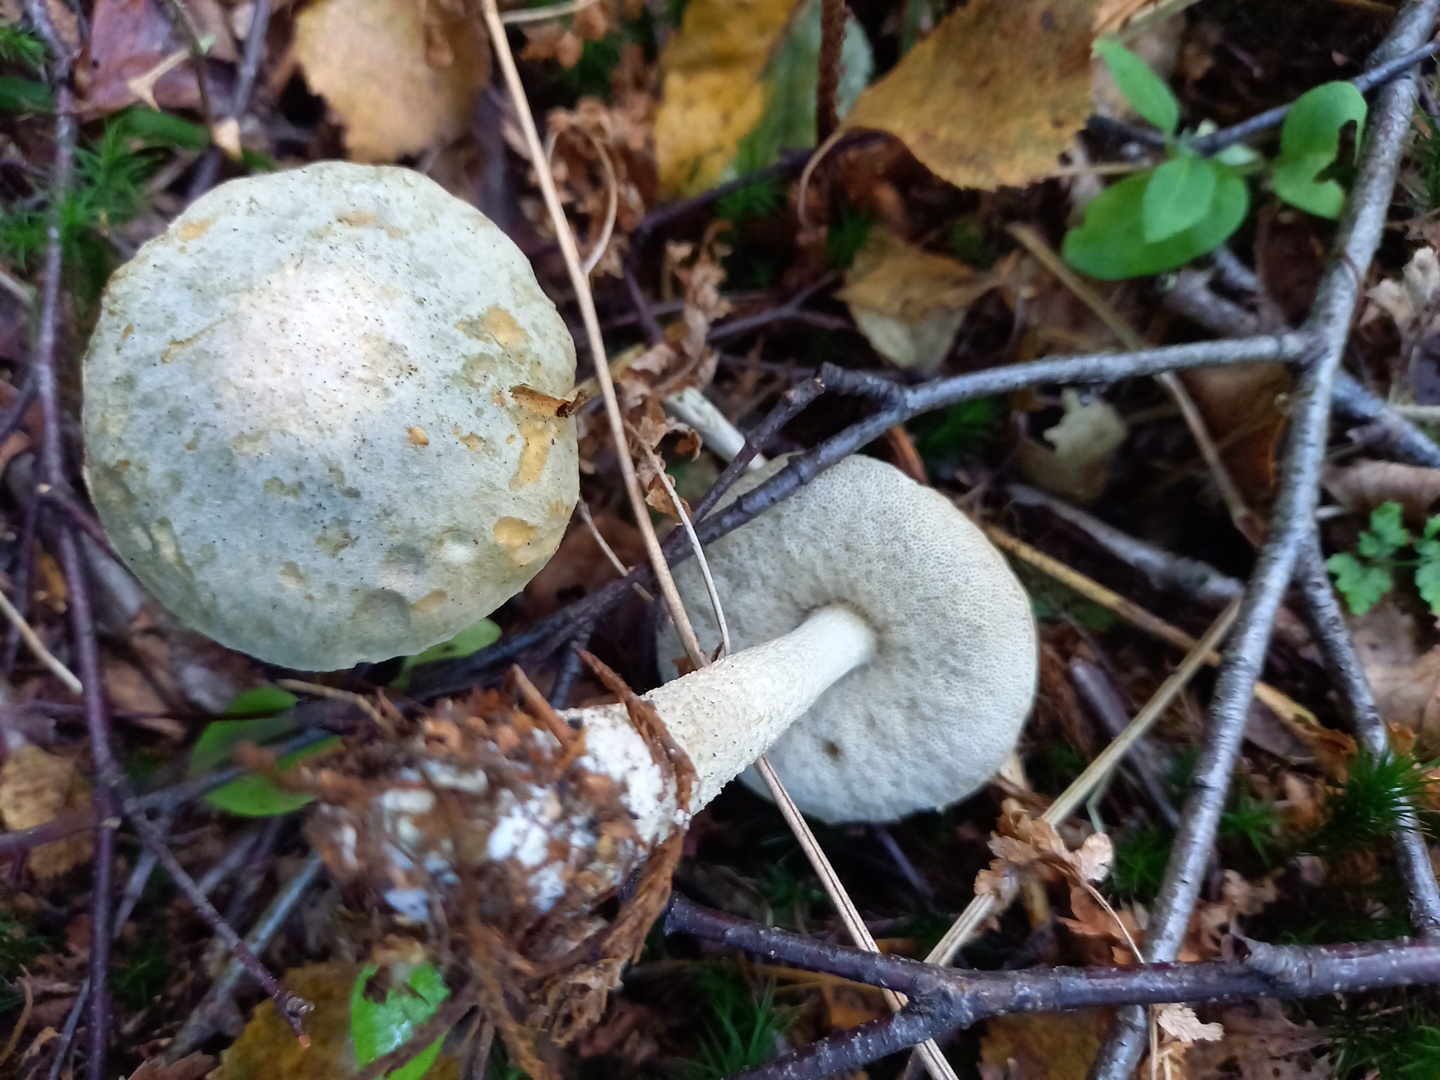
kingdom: Fungi
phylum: Basidiomycota
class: Agaricomycetes
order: Boletales
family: Boletaceae
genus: Leccinum
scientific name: Leccinum scabrum
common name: hvid skælrørhat
